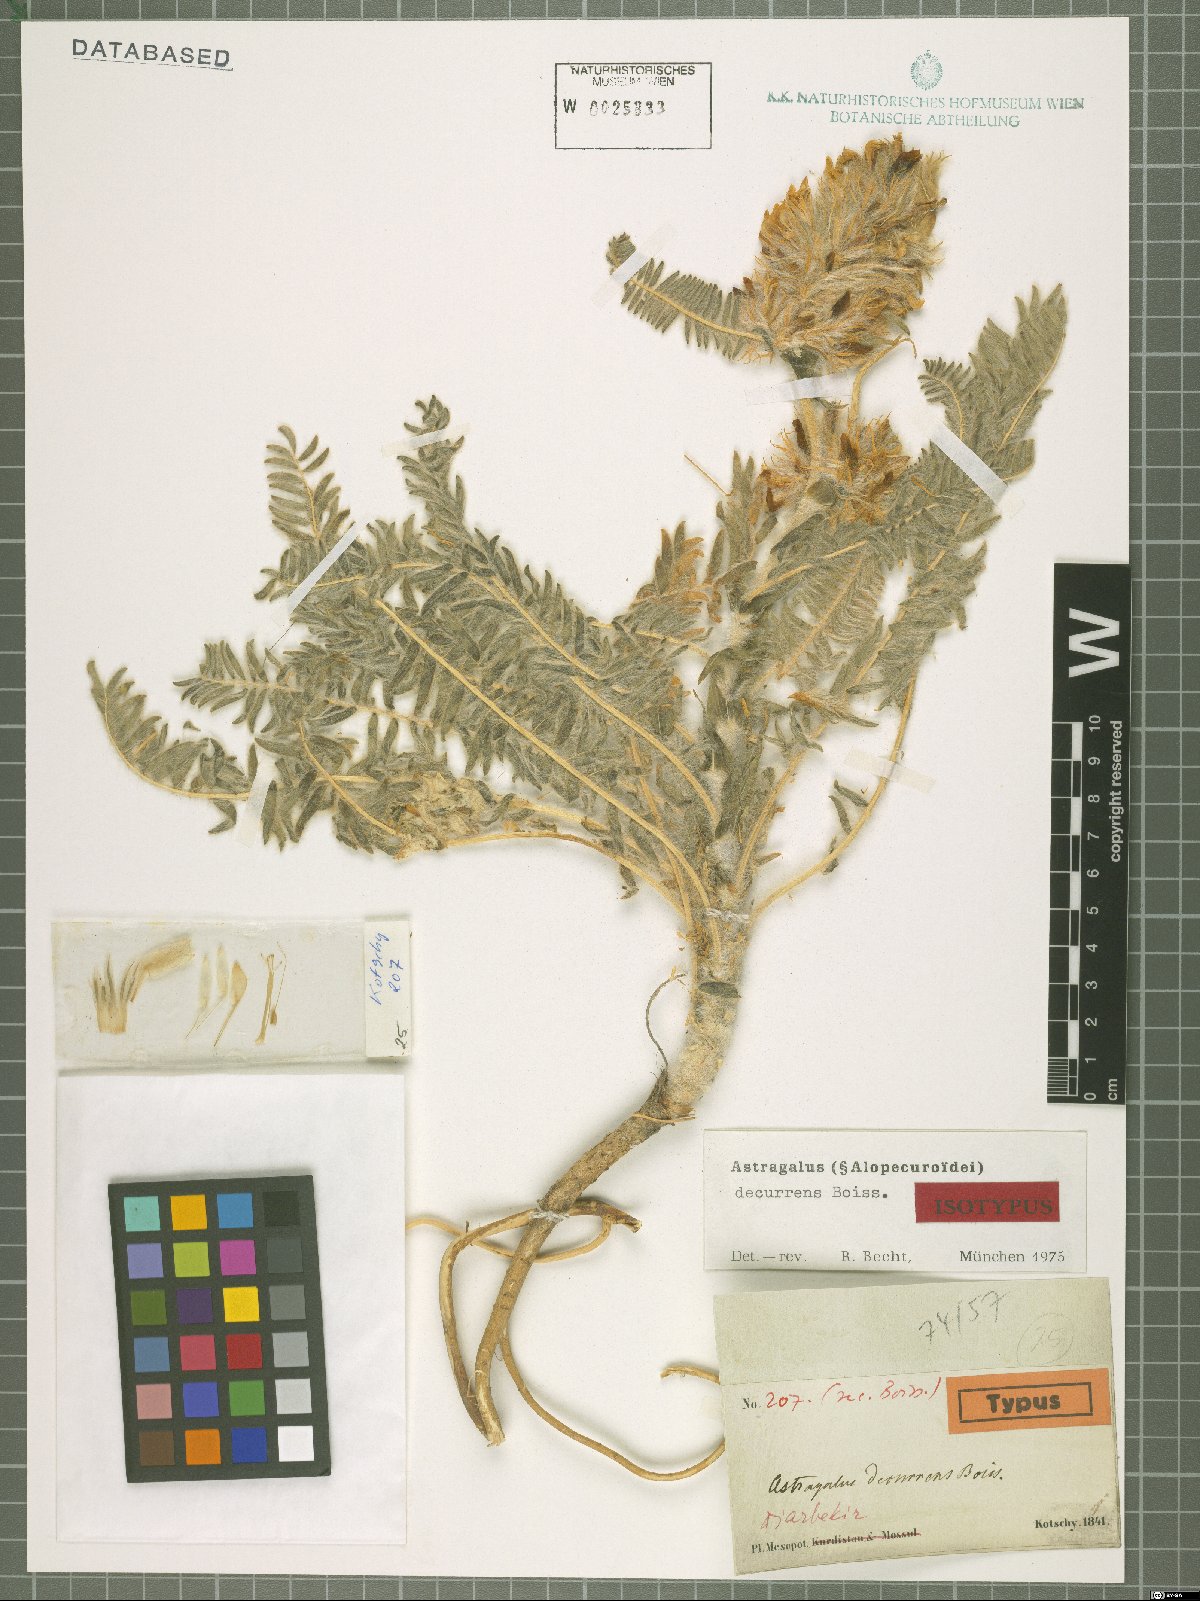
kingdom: Plantae
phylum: Tracheophyta
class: Magnoliopsida
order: Fabales
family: Fabaceae
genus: Astragalus
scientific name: Astragalus decurrens
